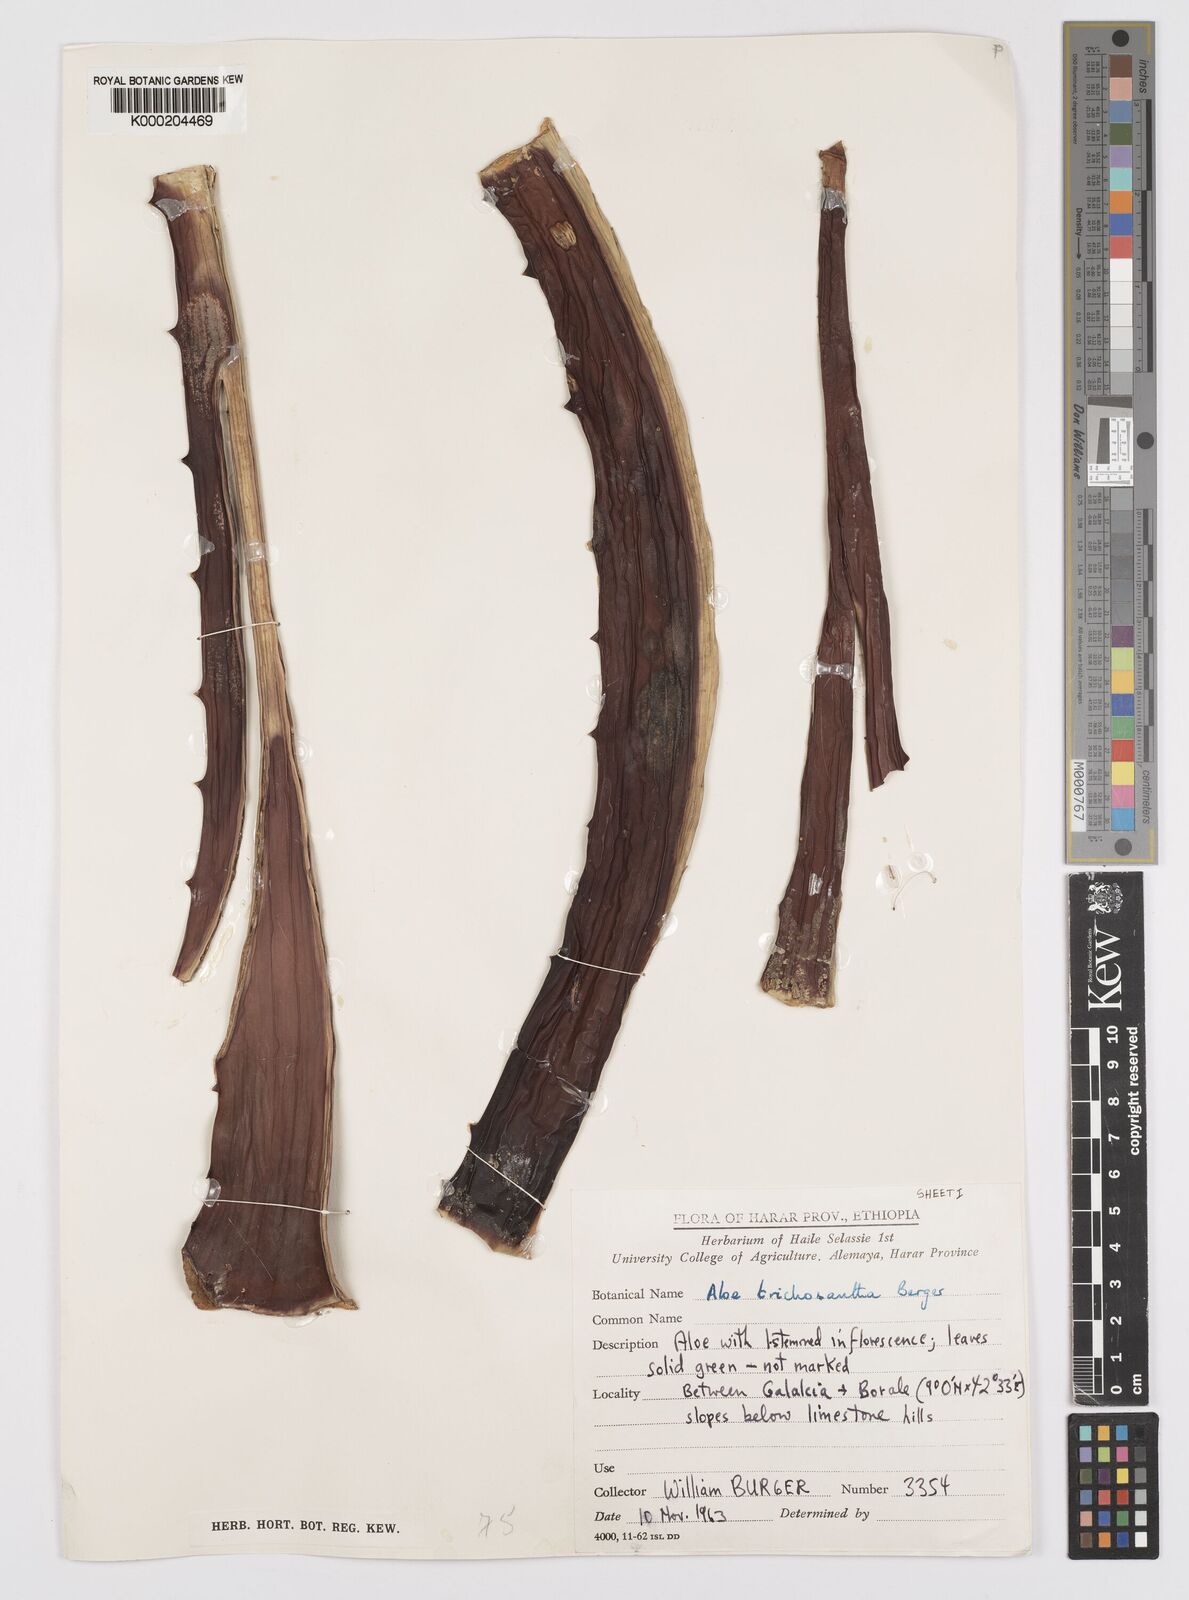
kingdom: Plantae
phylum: Tracheophyta
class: Liliopsida
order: Asparagales
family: Asphodelaceae
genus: Aloe
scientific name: Aloe trichosantha
